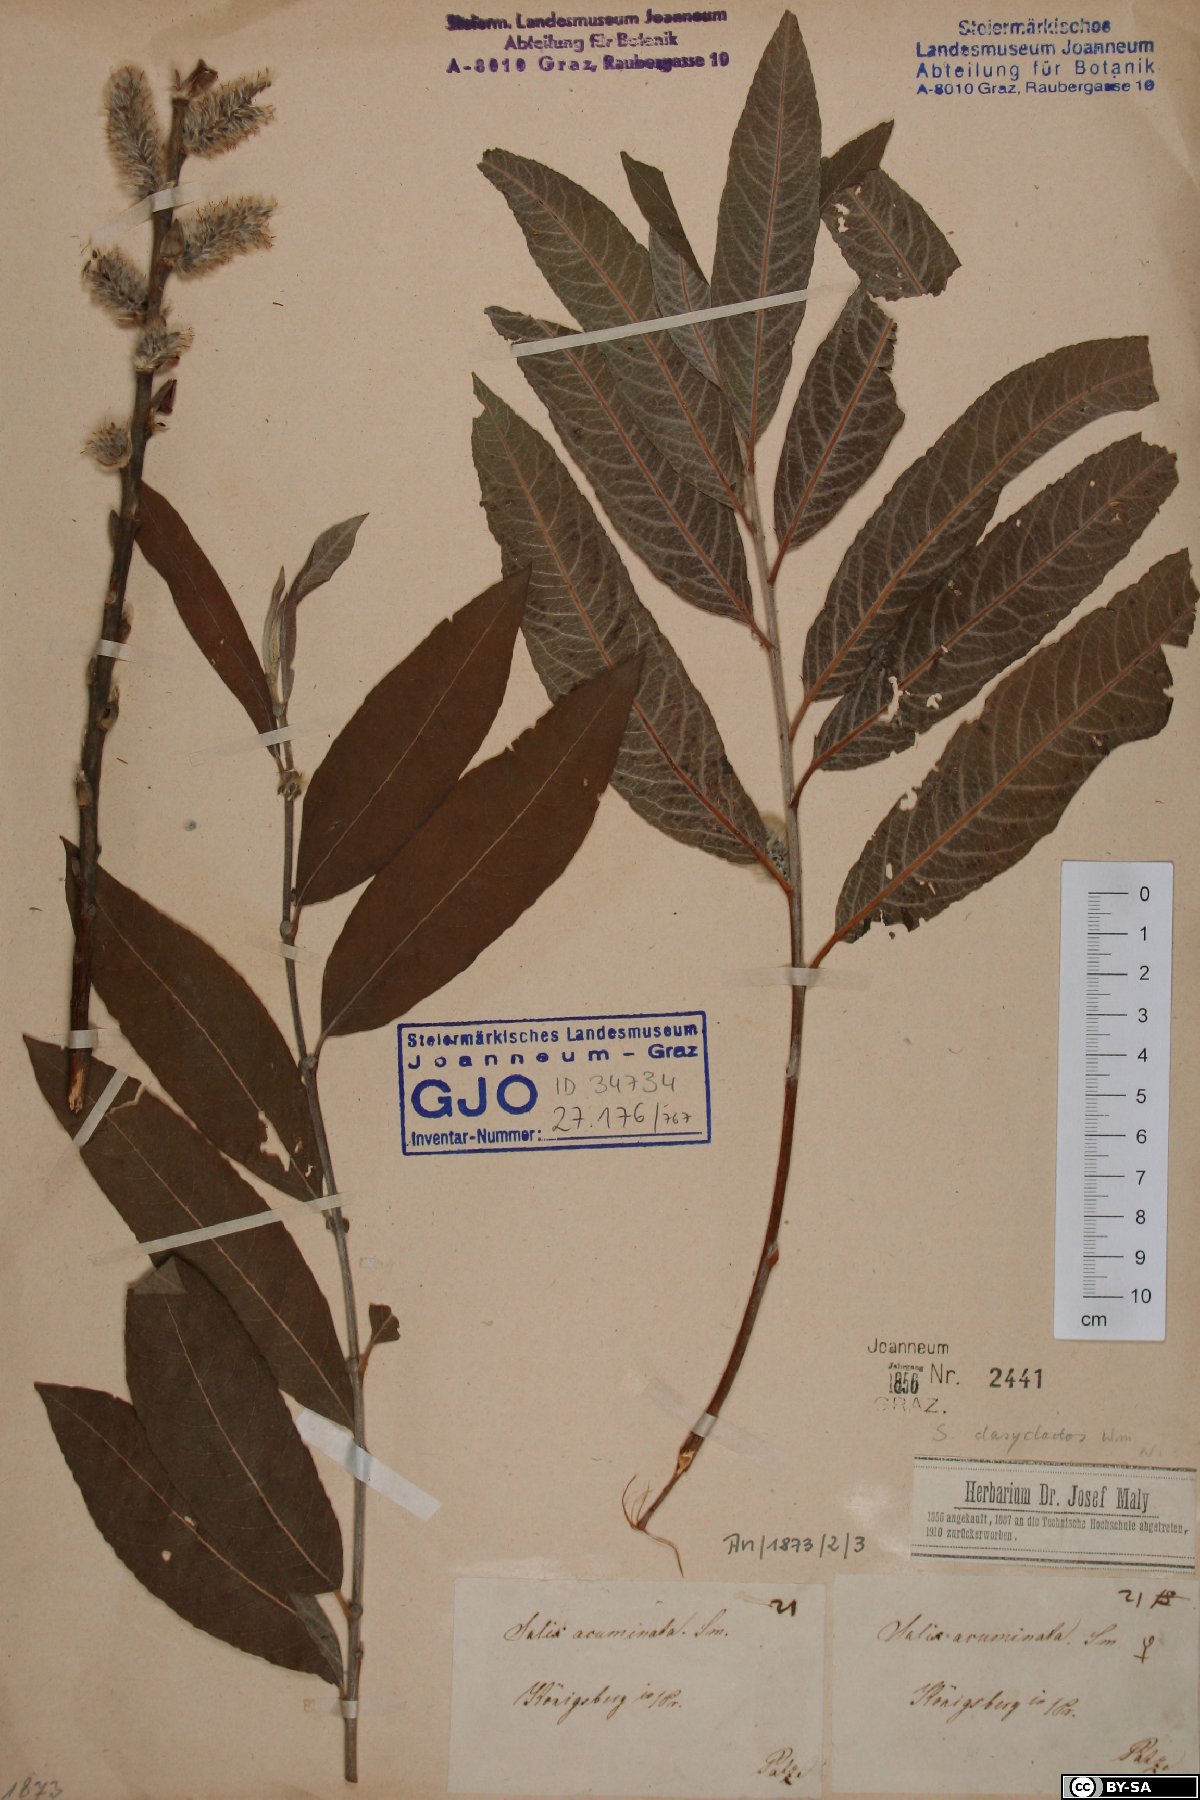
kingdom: Plantae
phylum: Tracheophyta
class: Magnoliopsida
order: Malpighiales
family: Salicaceae
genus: Salix
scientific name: Salix gmelinii
